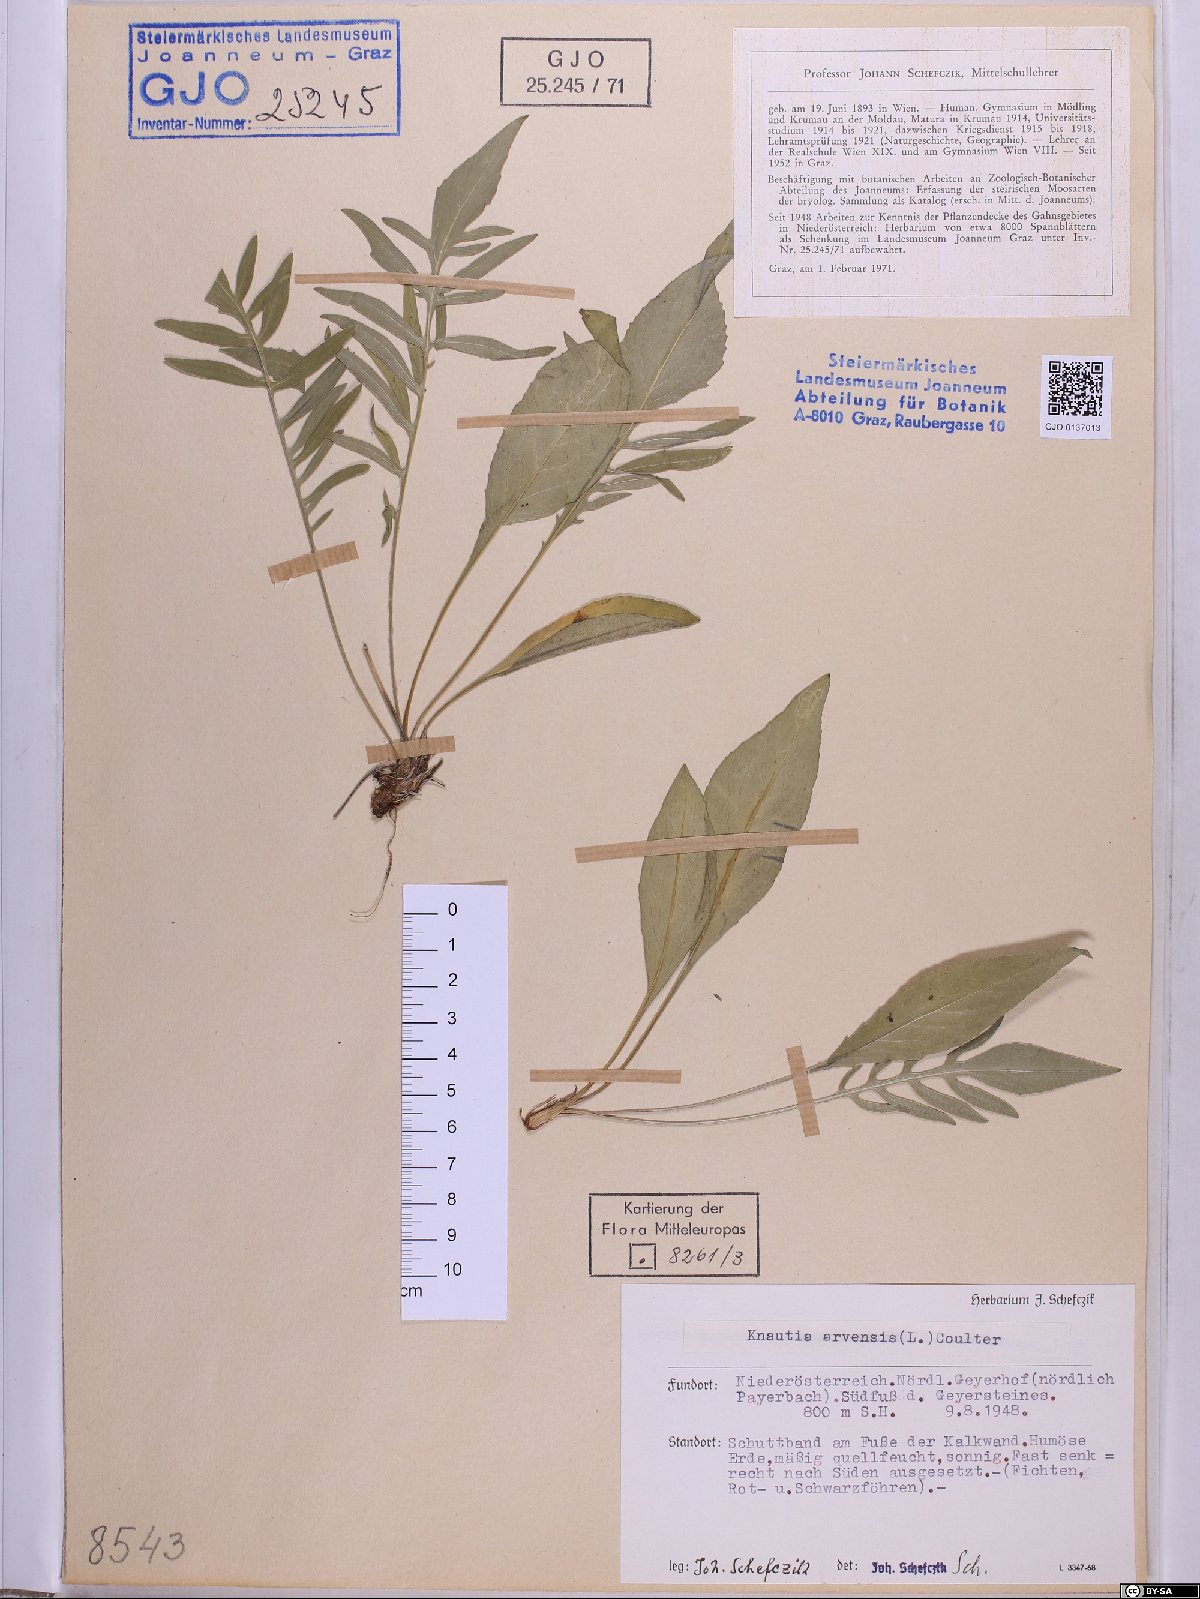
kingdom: Plantae
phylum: Tracheophyta
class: Magnoliopsida
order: Dipsacales
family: Caprifoliaceae
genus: Knautia
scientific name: Knautia arvensis
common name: Field scabiosa
